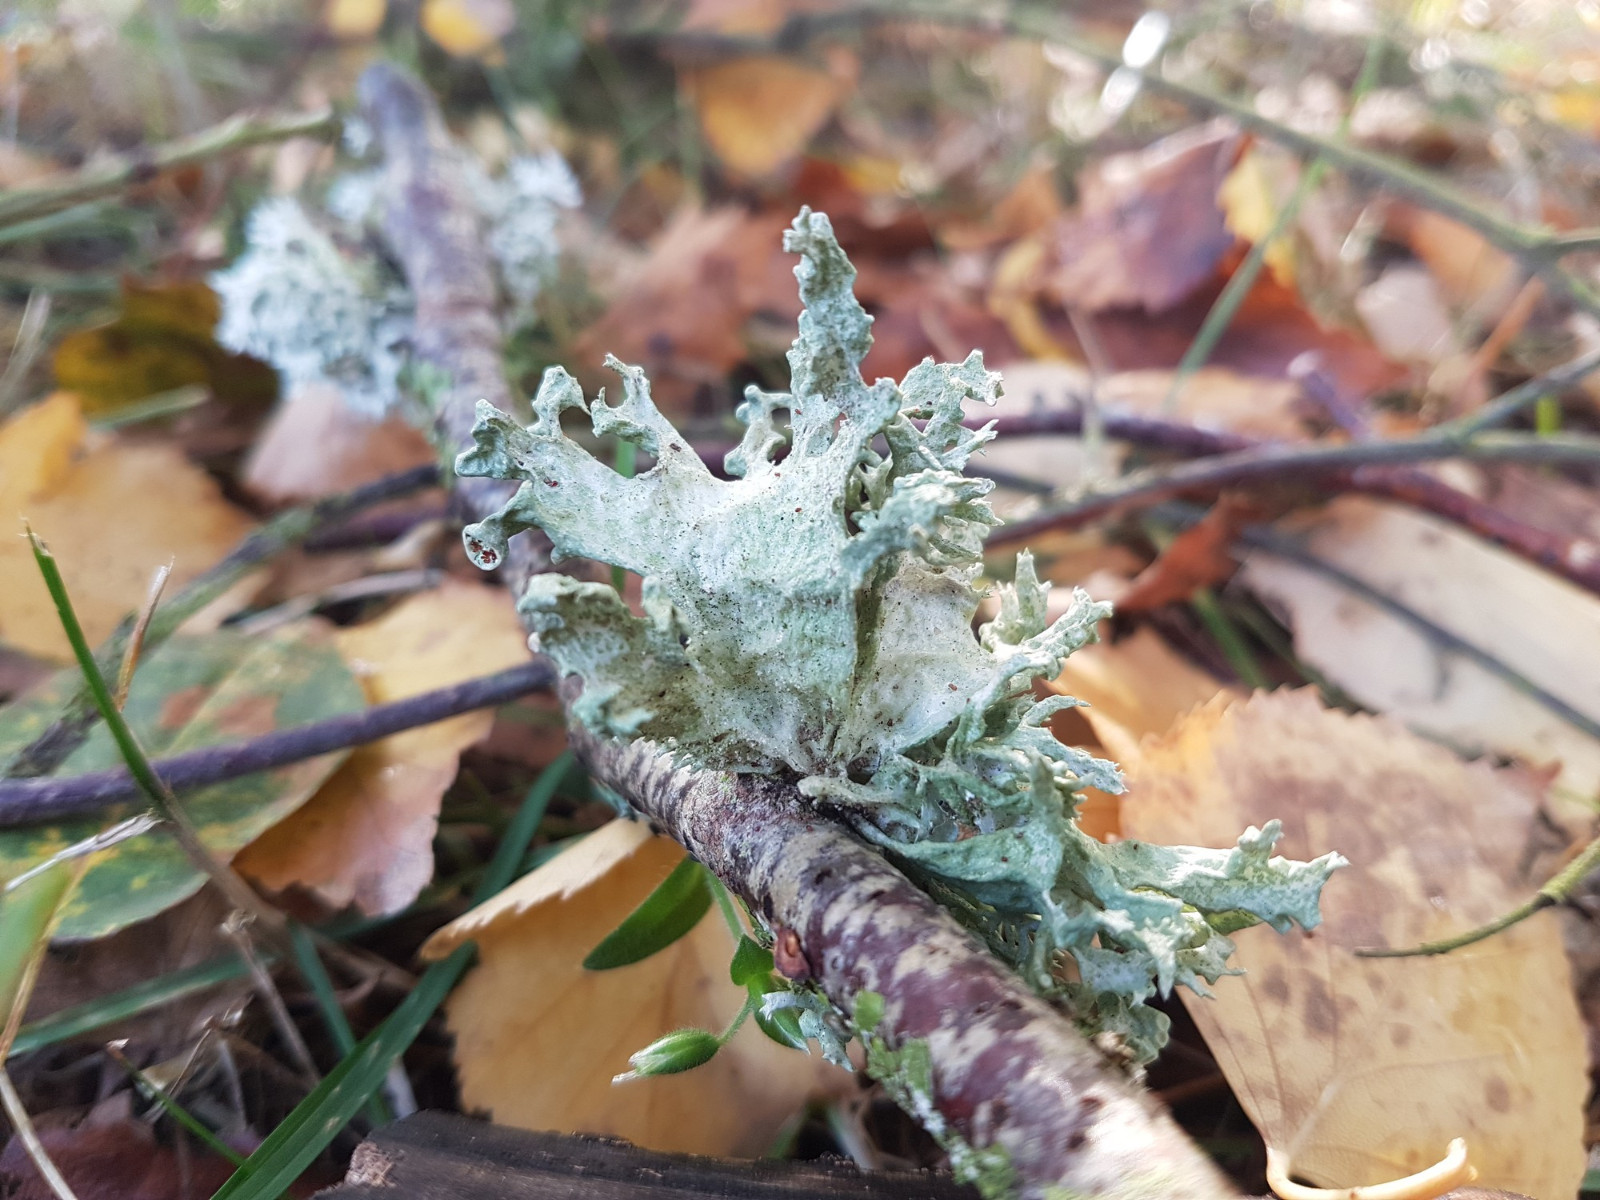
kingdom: Fungi
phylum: Ascomycota
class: Lecanoromycetes
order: Lecanorales
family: Ramalinaceae
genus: Ramalina
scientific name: Ramalina fastigiata
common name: tue-grenlav
